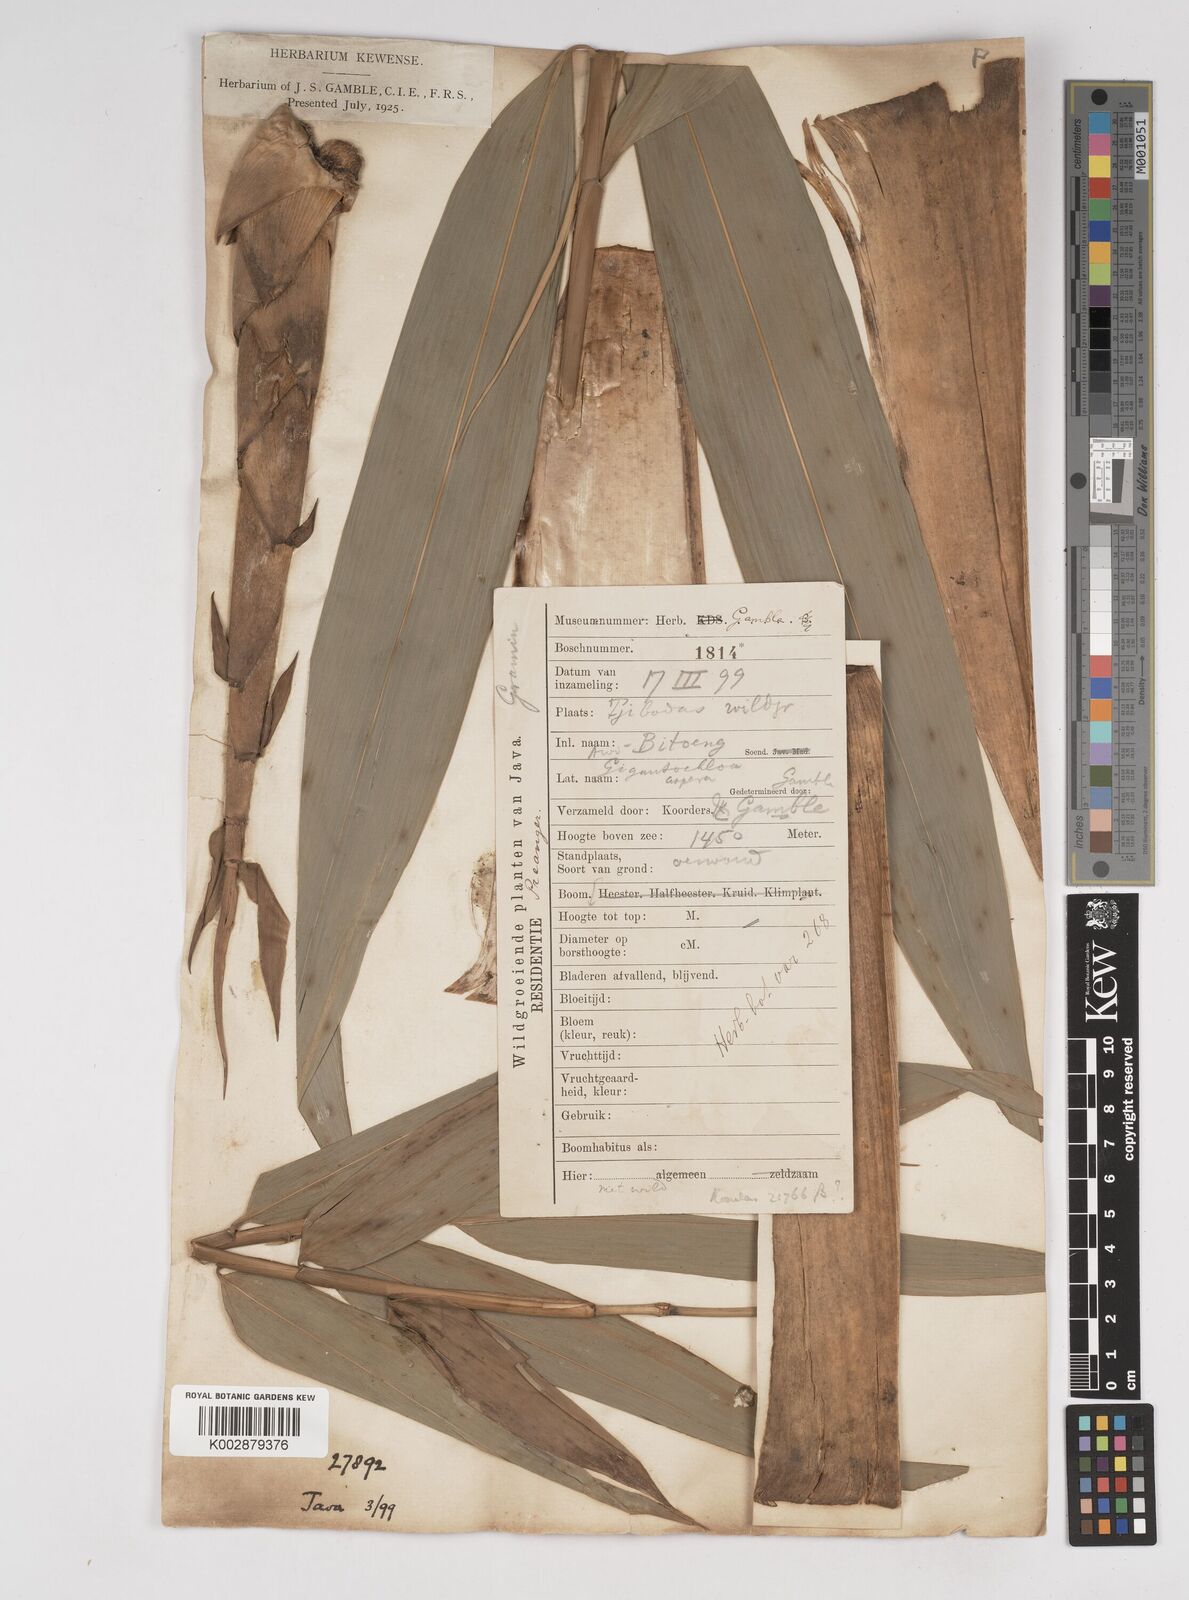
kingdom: Plantae
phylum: Tracheophyta
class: Liliopsida
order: Poales
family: Poaceae
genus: Dendrocalamus
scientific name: Dendrocalamus asper
